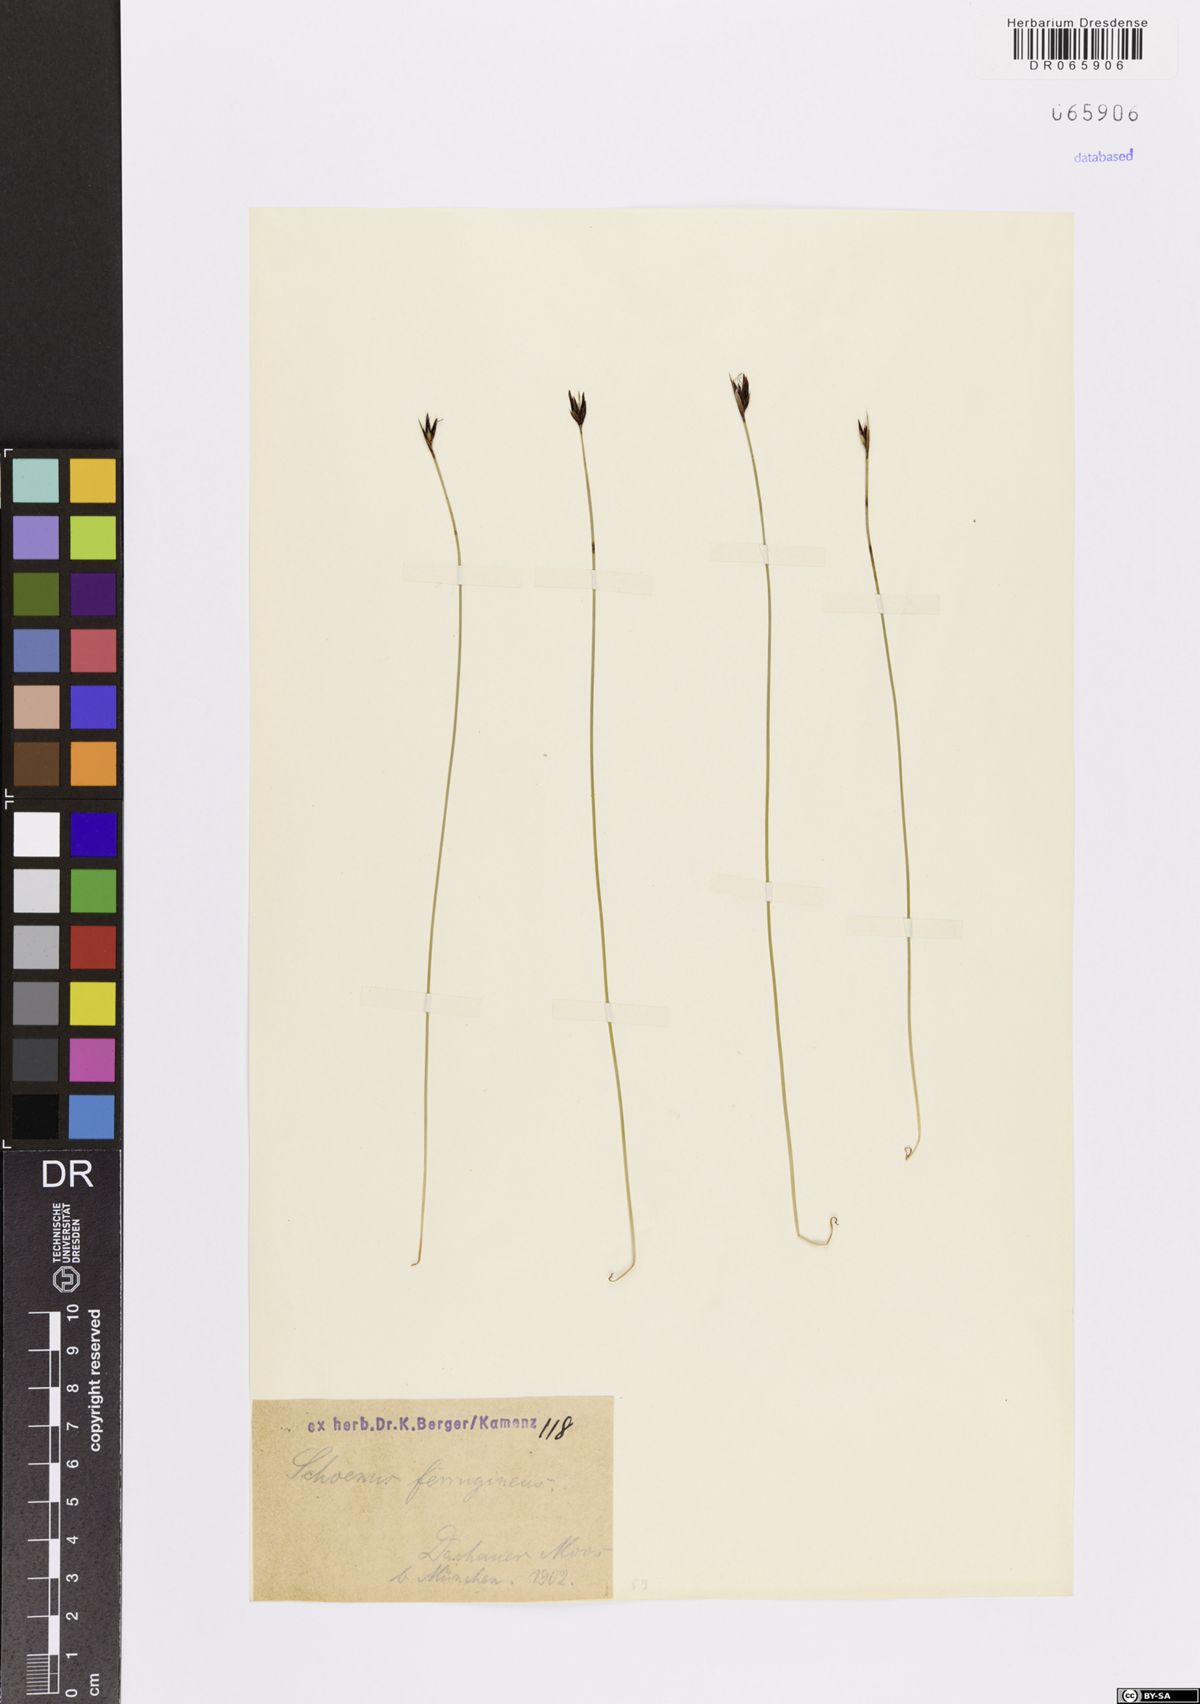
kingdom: Plantae
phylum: Tracheophyta
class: Liliopsida
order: Poales
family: Cyperaceae
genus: Schoenus
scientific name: Schoenus ferrugineus
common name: Brown bog-rush
